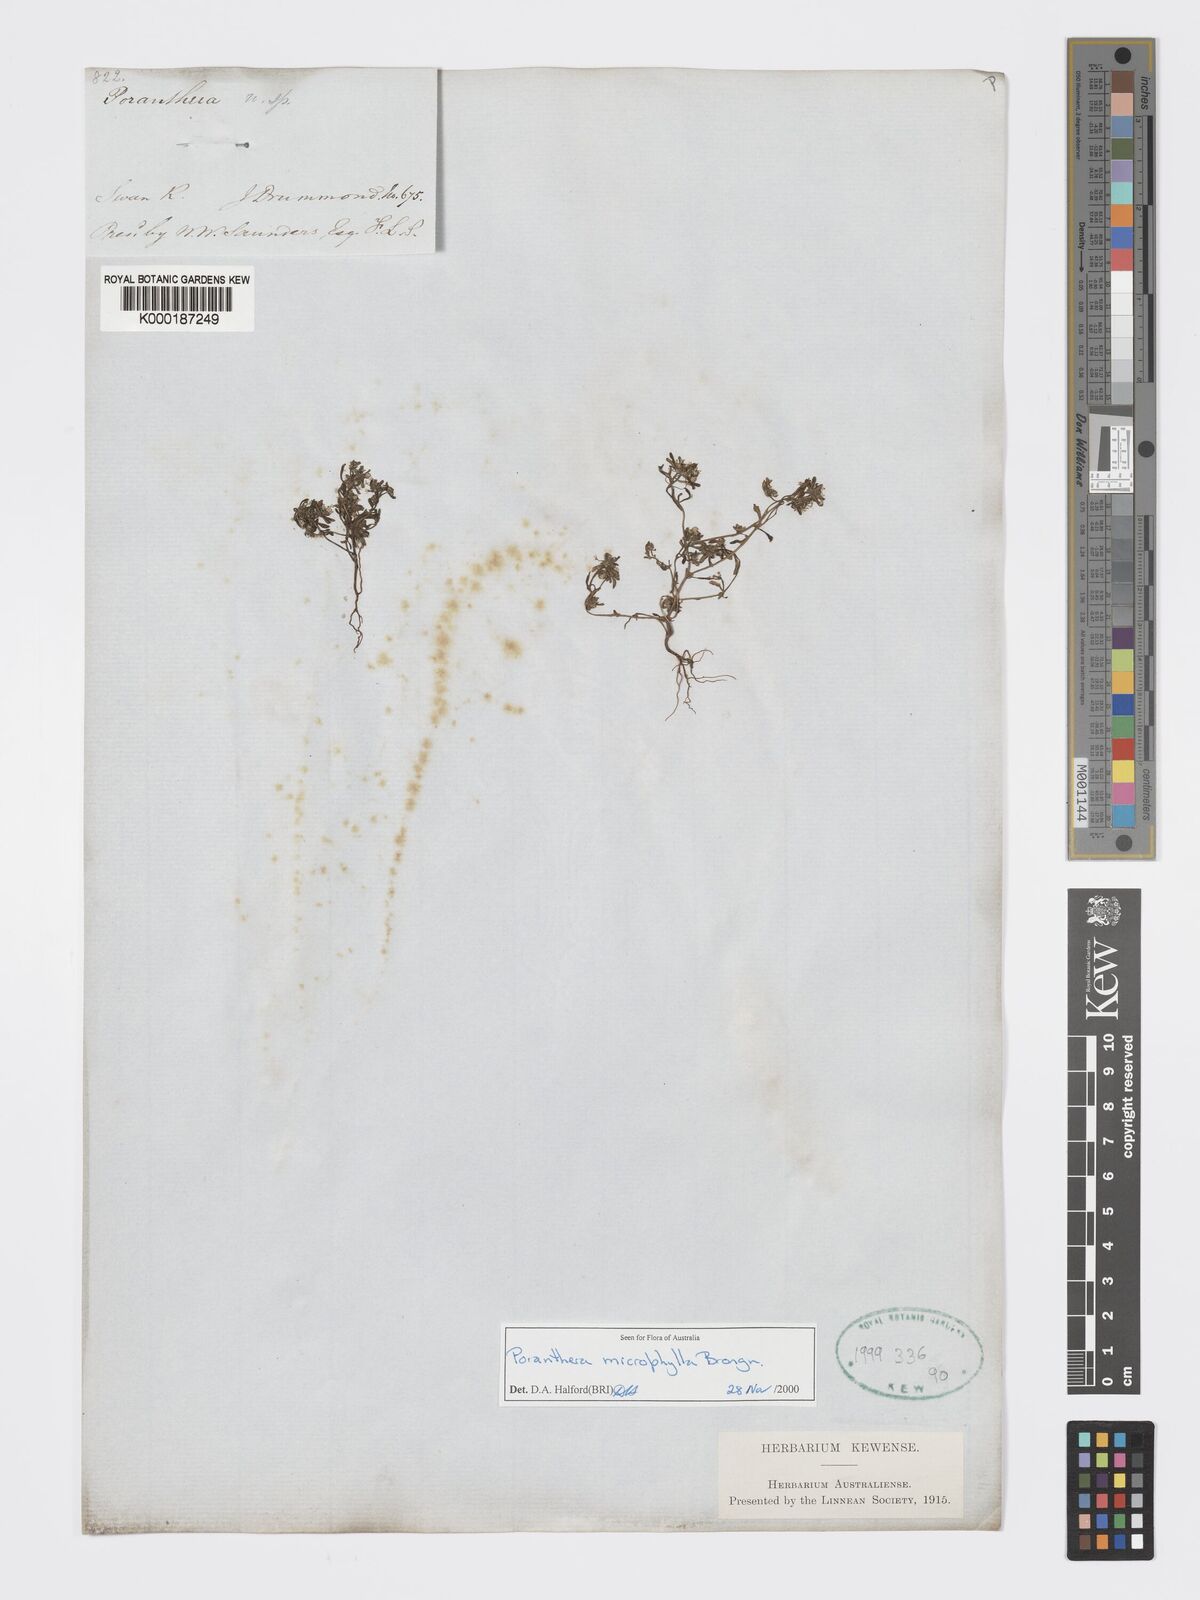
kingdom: Plantae
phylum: Tracheophyta
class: Magnoliopsida
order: Malpighiales
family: Phyllanthaceae
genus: Poranthera
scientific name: Poranthera microphylla
